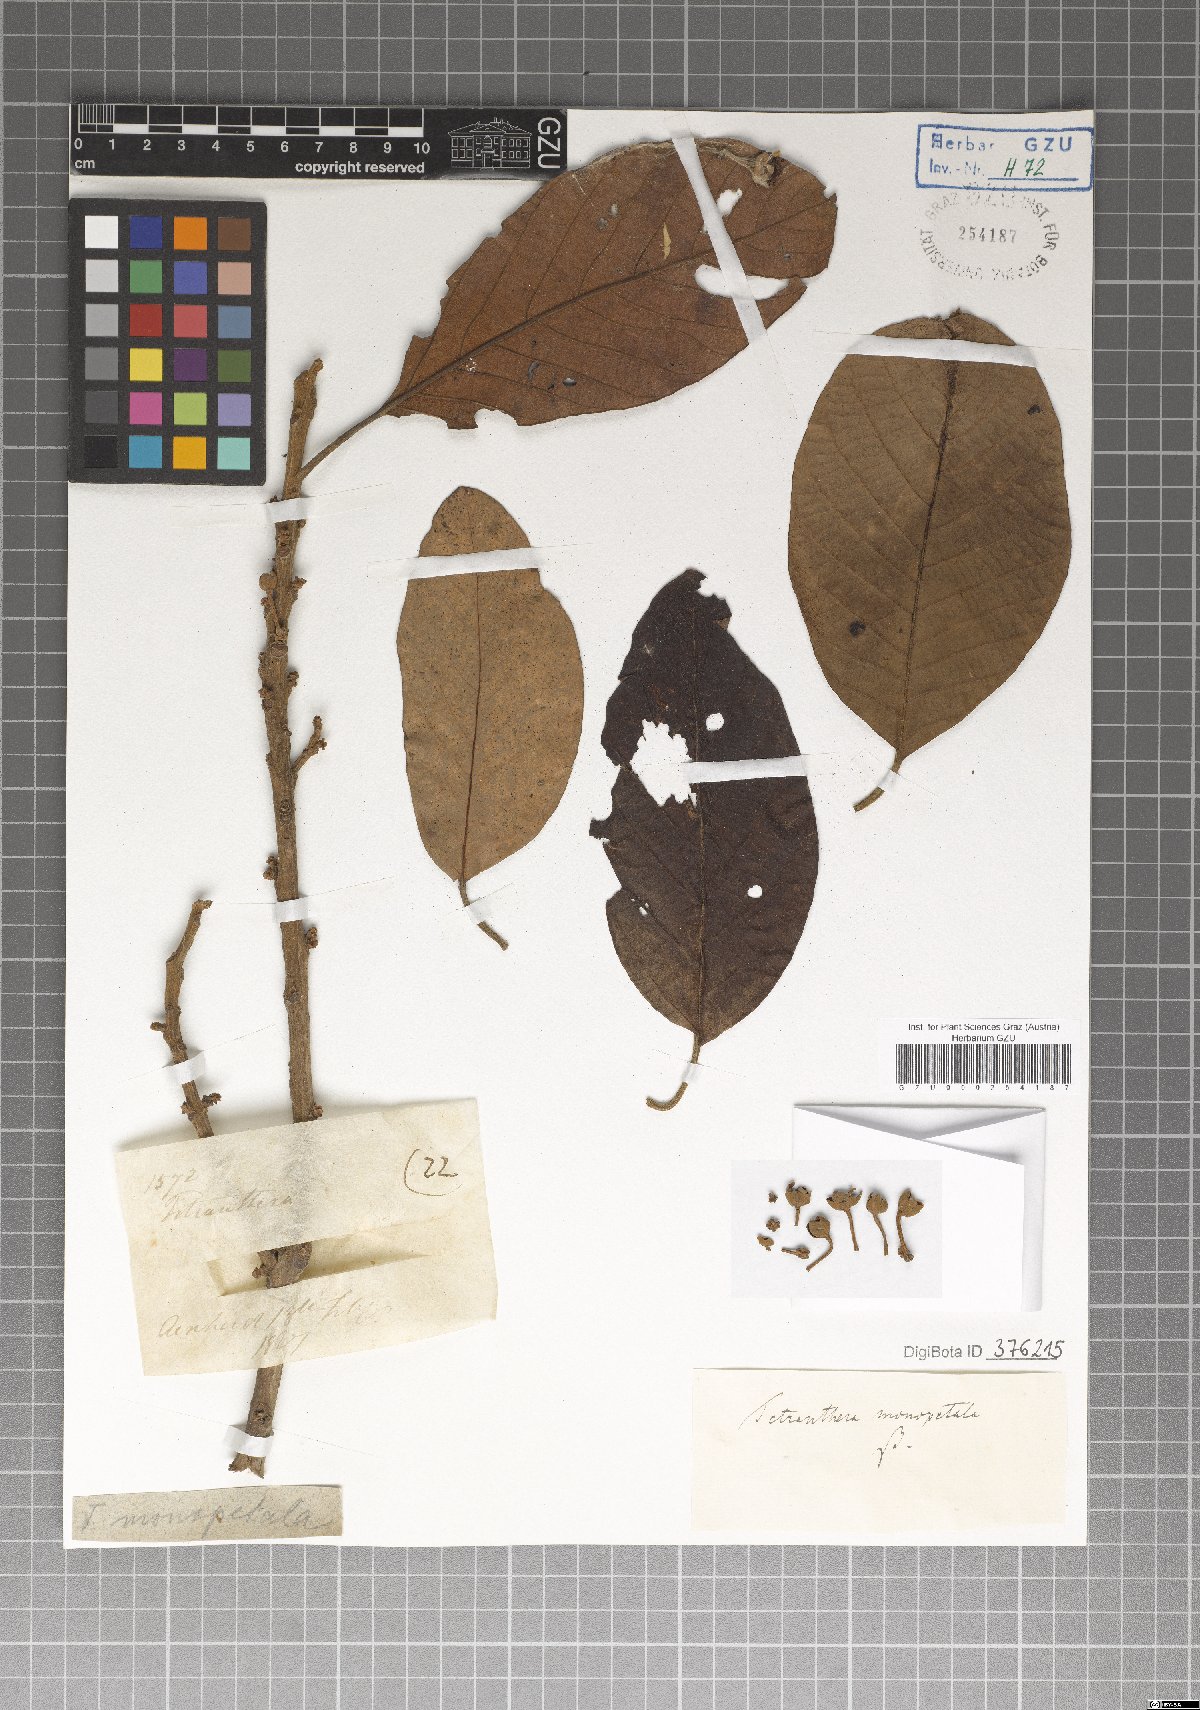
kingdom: Plantae
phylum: Tracheophyta
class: Magnoliopsida
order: Laurales
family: Lauraceae
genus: Litsea
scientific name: Litsea monopetala
